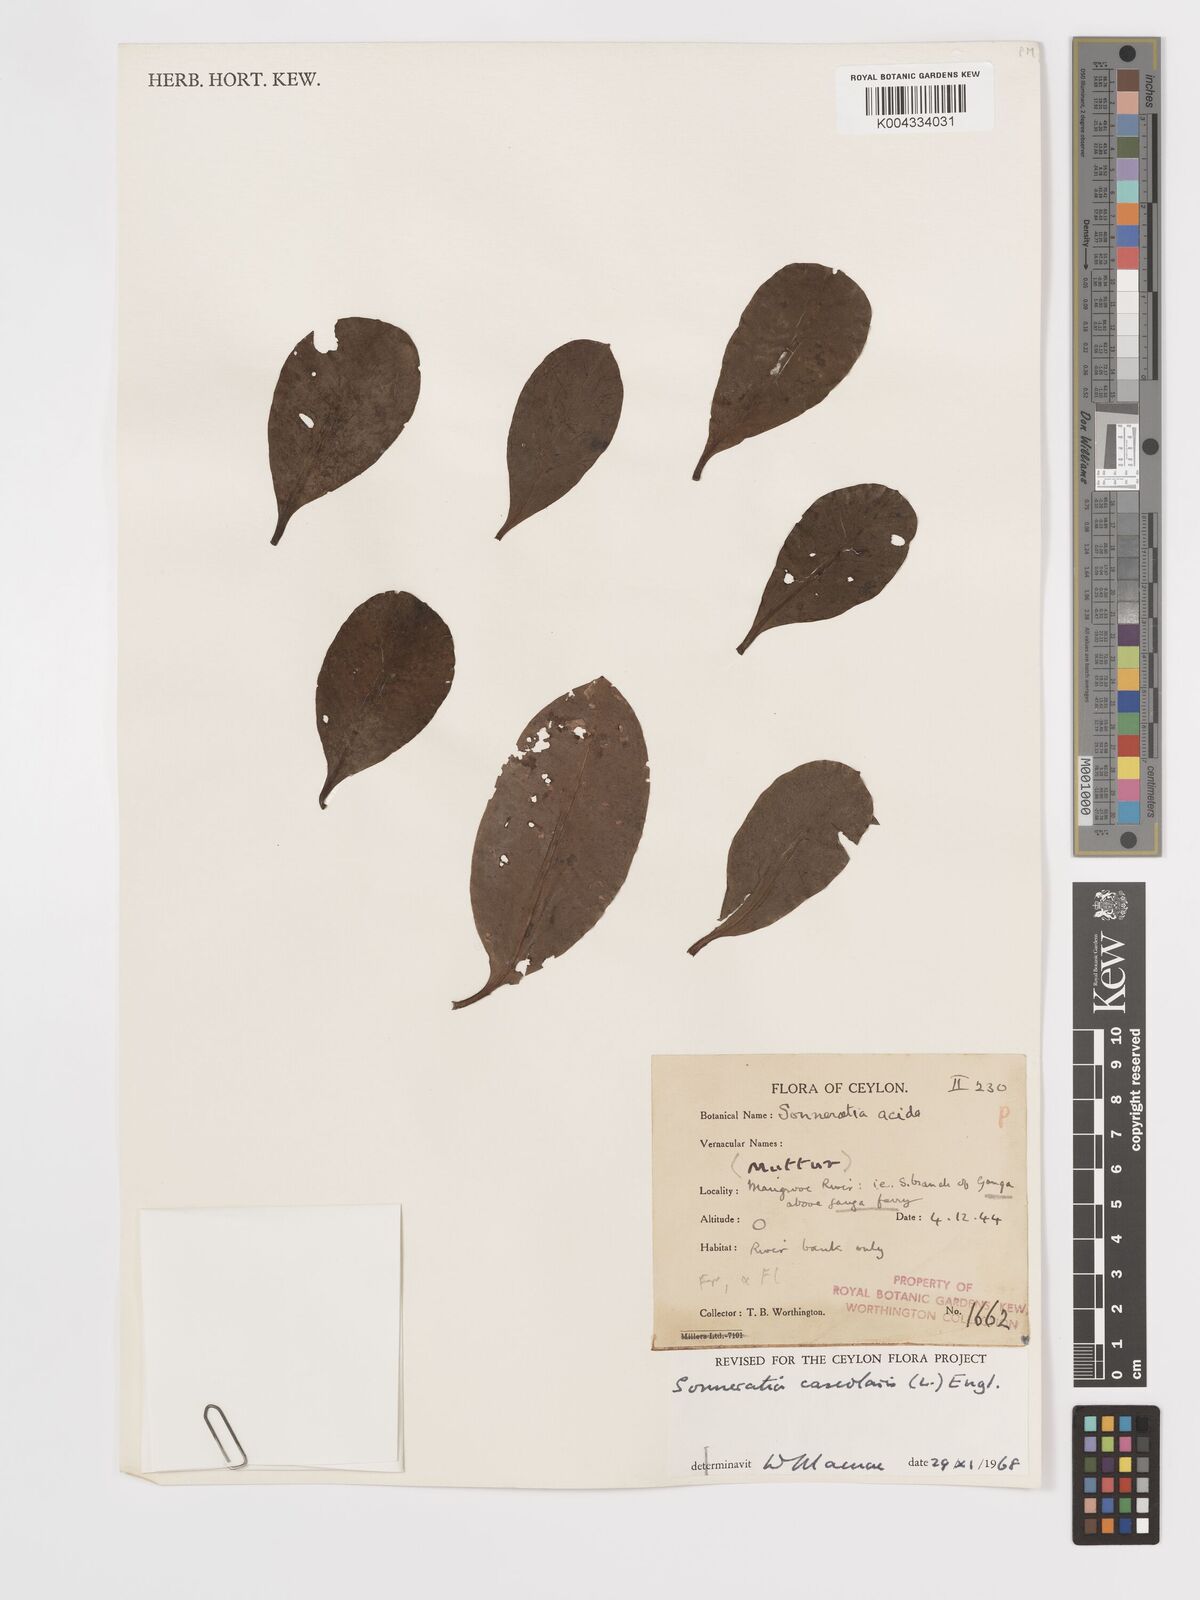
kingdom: Plantae
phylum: Tracheophyta
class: Magnoliopsida
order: Myrtales
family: Lythraceae
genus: Sonneratia
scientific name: Sonneratia caseolaris
